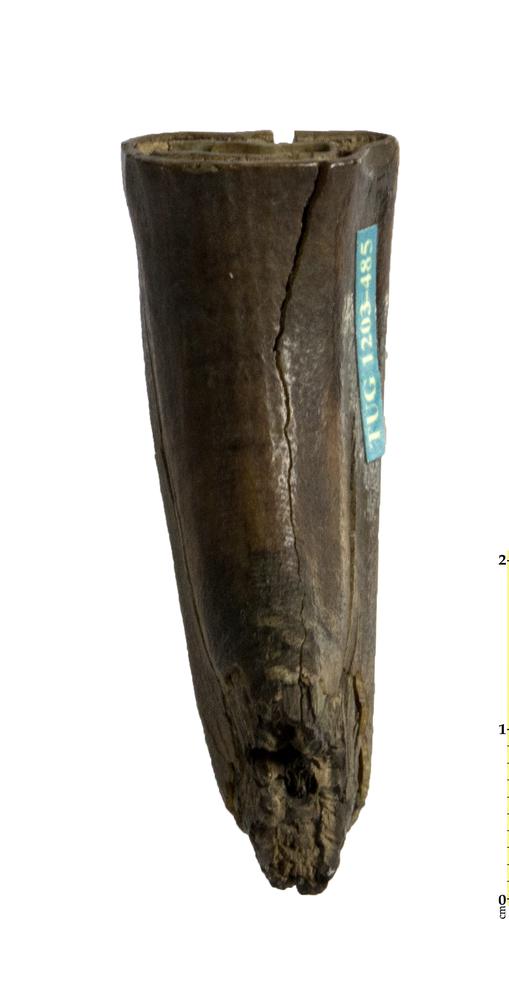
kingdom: Animalia
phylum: Chordata
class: Mammalia
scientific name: Mammalia
